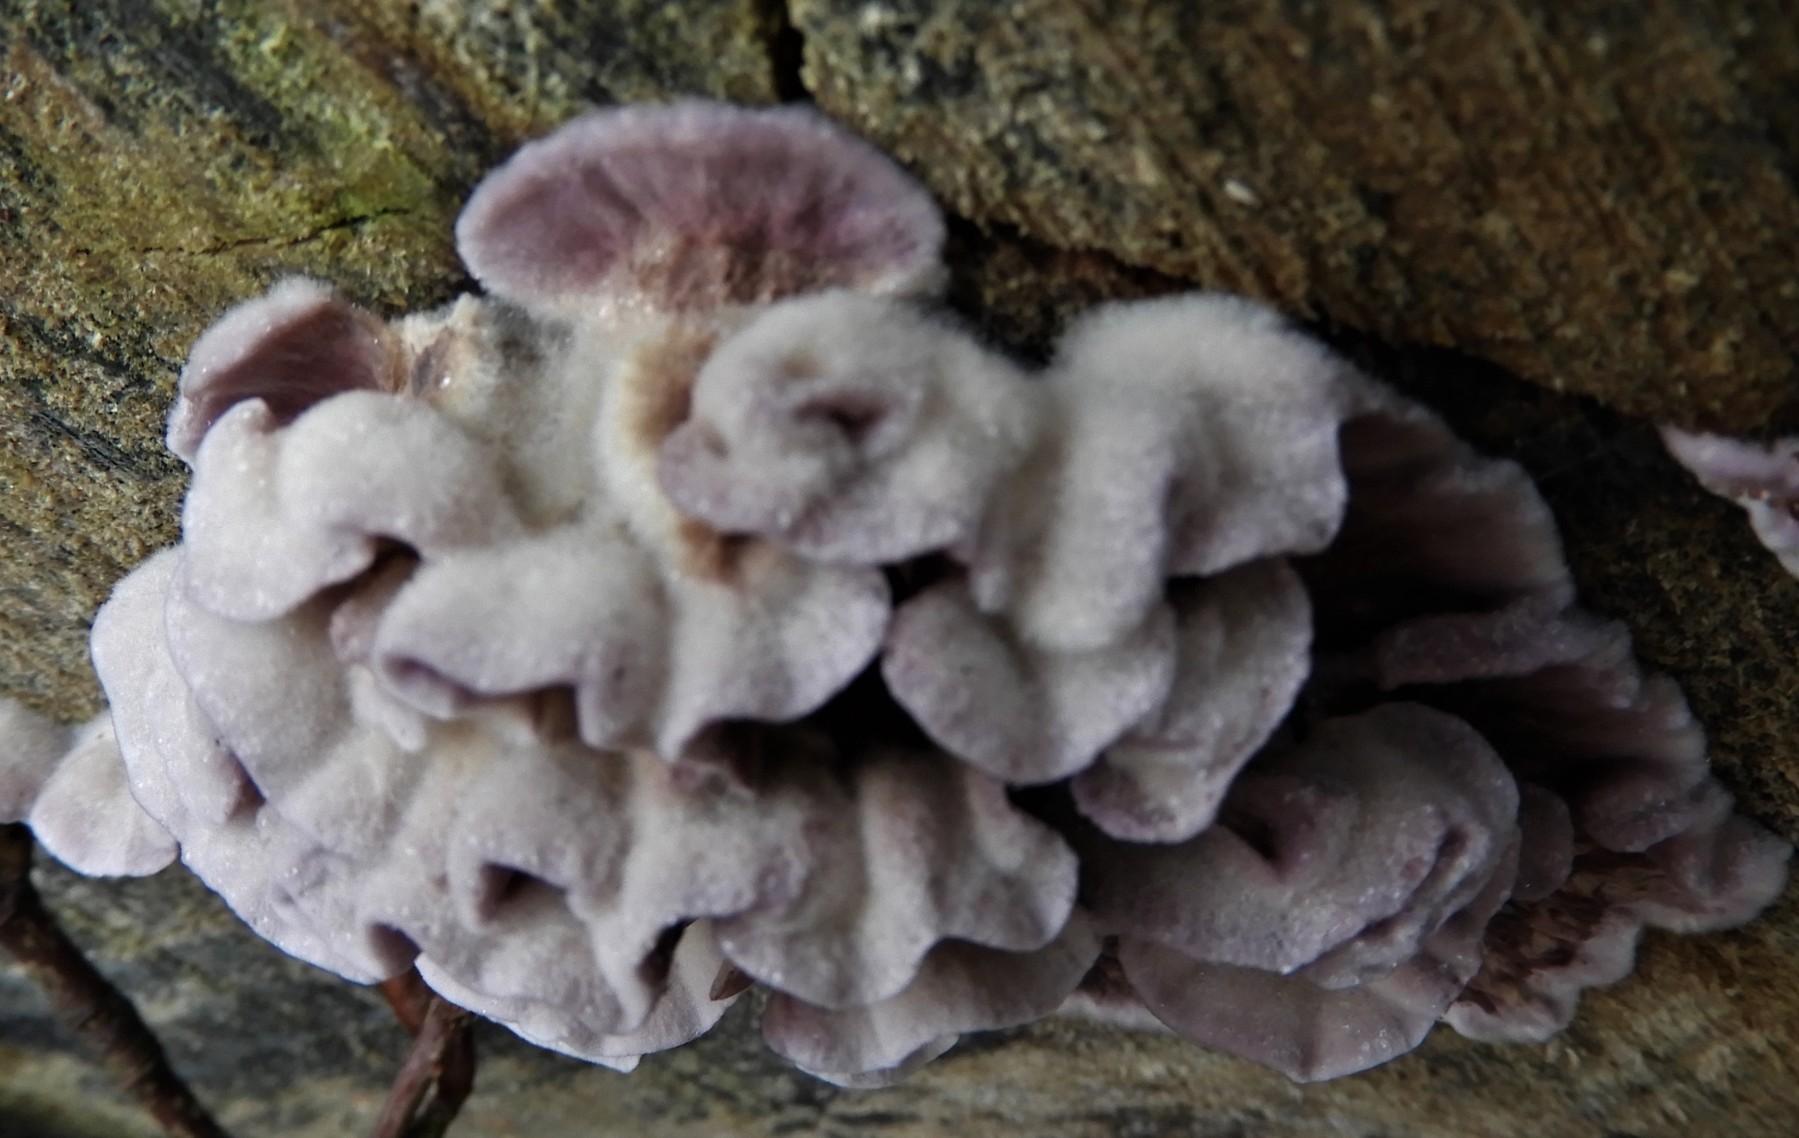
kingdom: Fungi
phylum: Basidiomycota
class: Agaricomycetes
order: Agaricales
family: Cyphellaceae
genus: Chondrostereum
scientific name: Chondrostereum purpureum
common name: purpurlædersvamp
